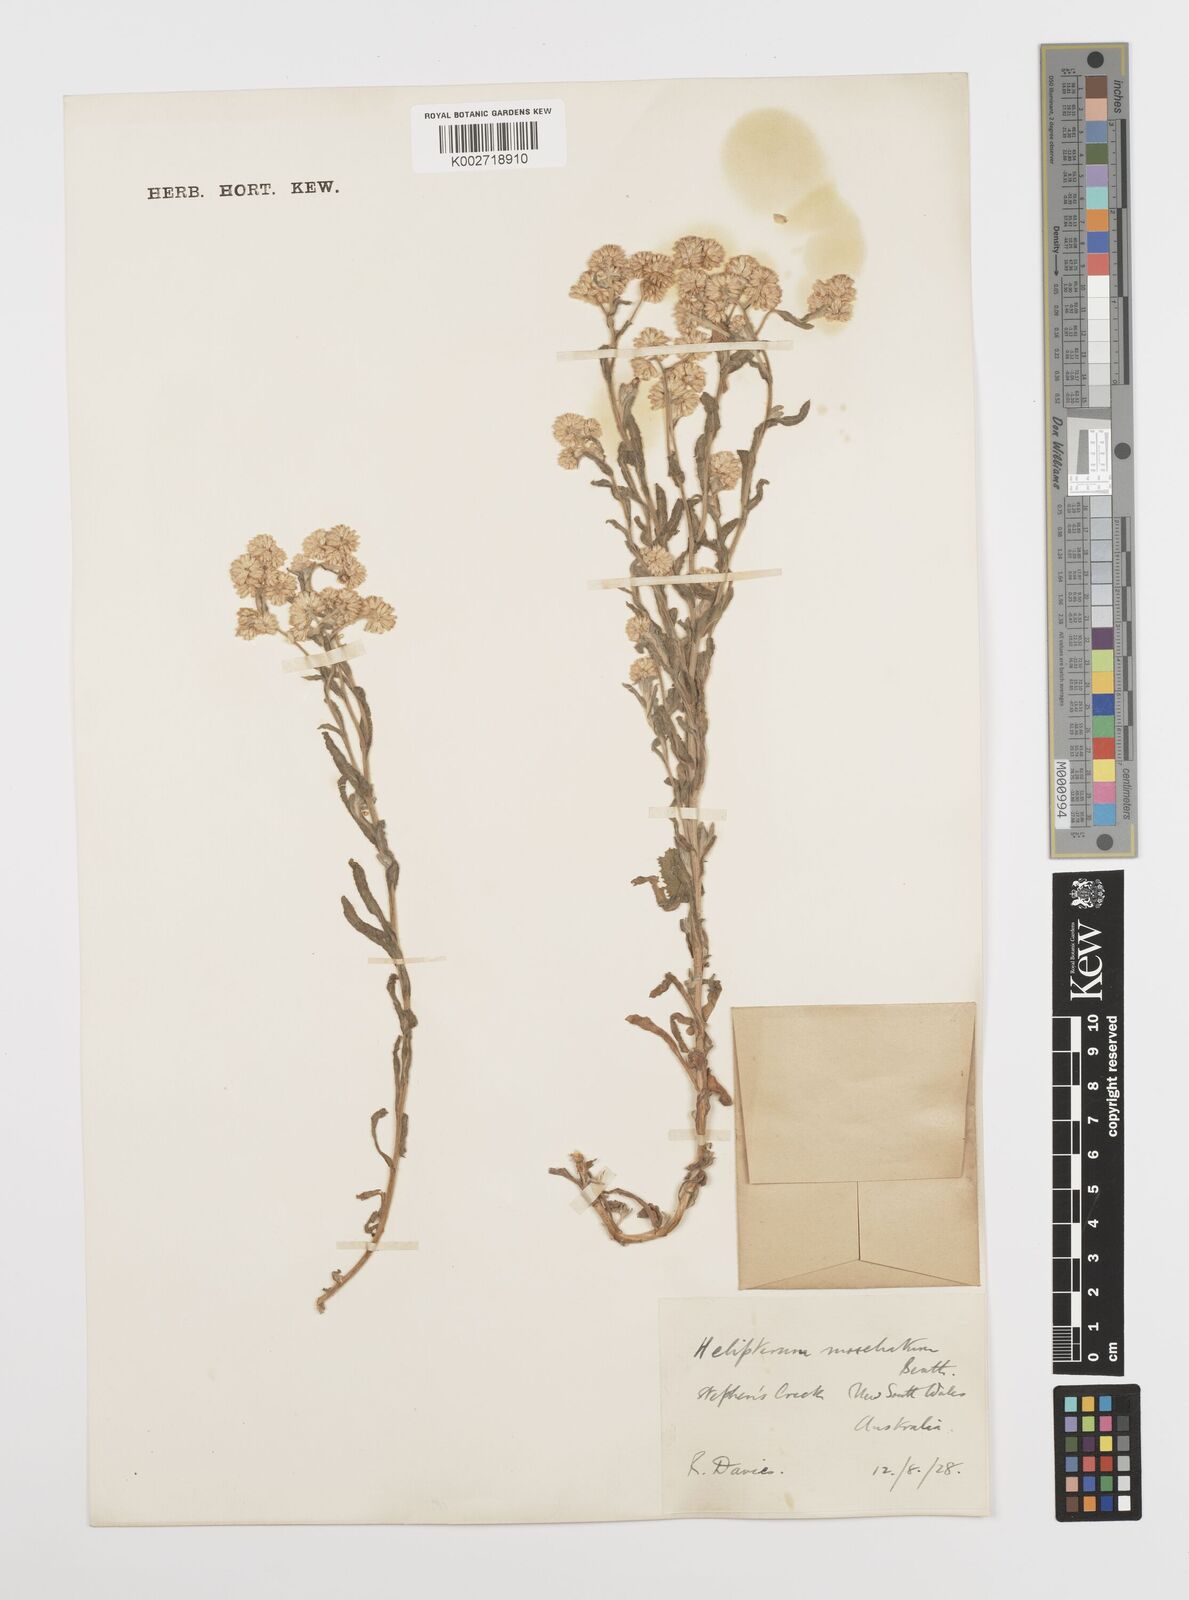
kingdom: Plantae
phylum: Tracheophyta
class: Magnoliopsida
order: Asterales
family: Asteraceae
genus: Rhodanthe
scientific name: Rhodanthe moschata
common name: Musk sunray
